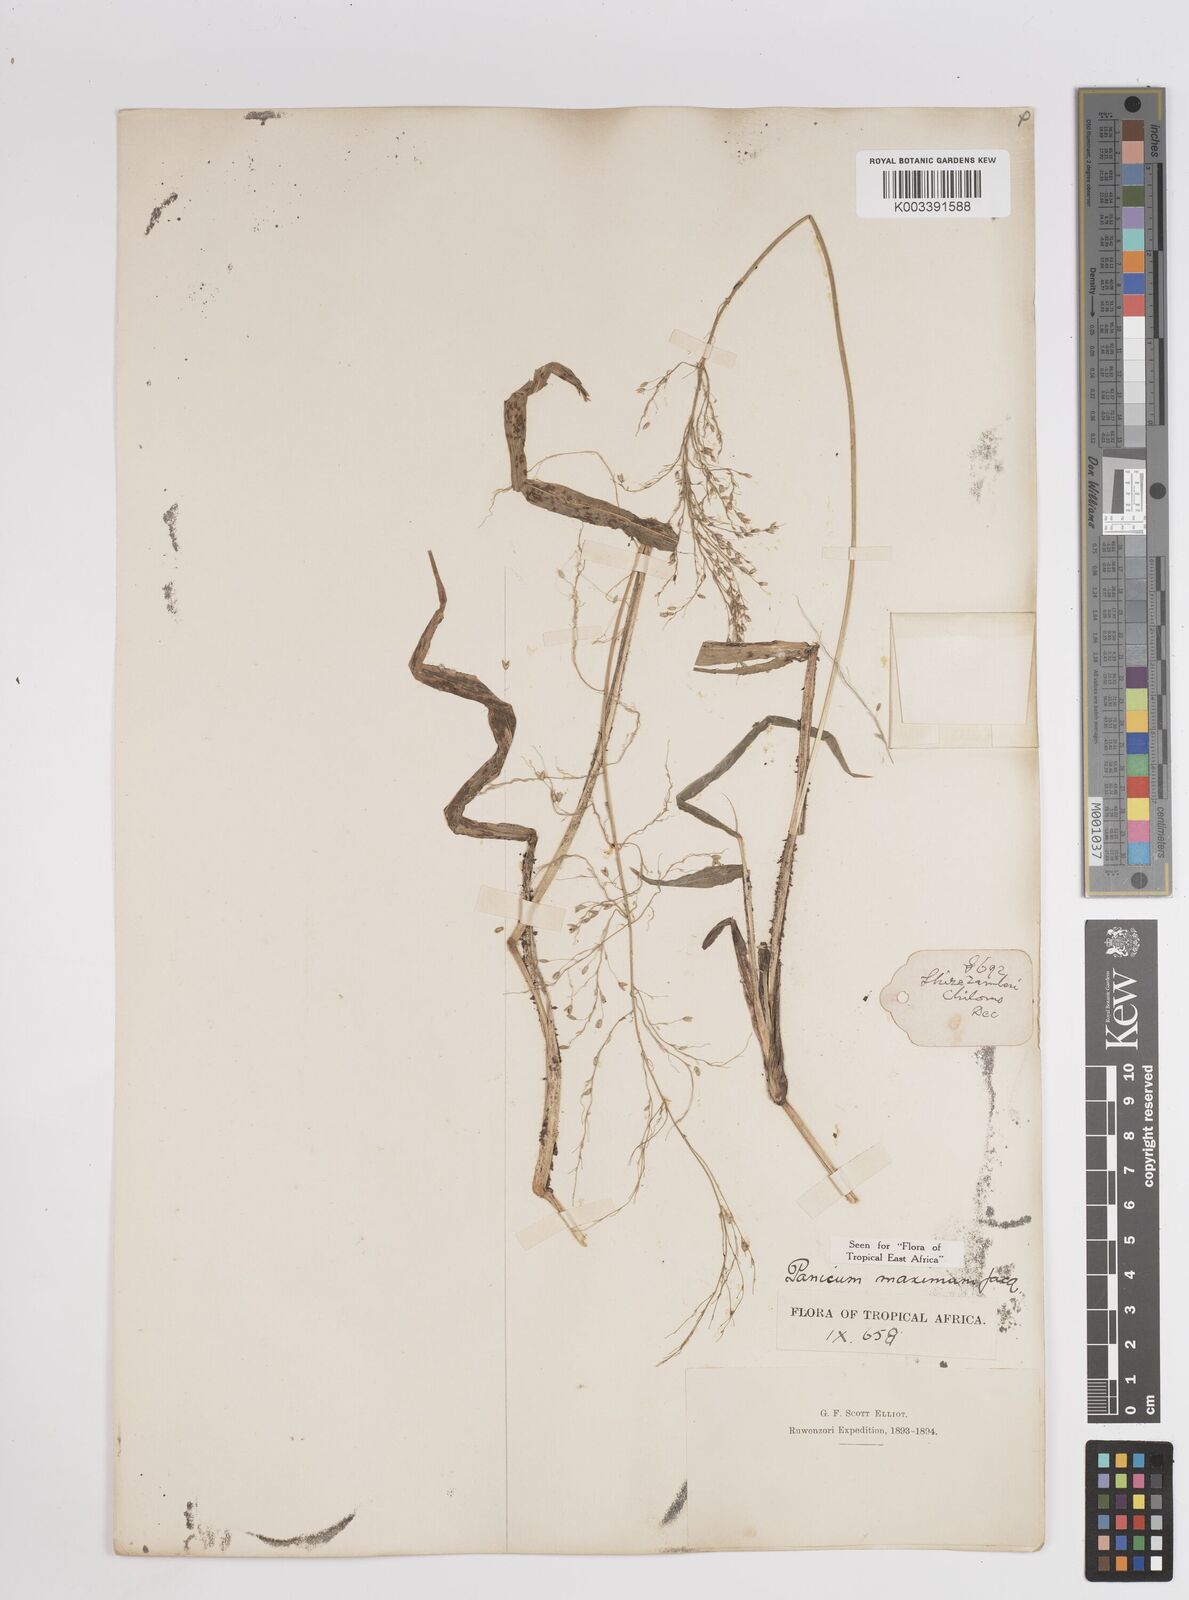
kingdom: Plantae
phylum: Tracheophyta
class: Liliopsida
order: Poales
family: Poaceae
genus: Megathyrsus
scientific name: Megathyrsus maximus
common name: Guineagrass
